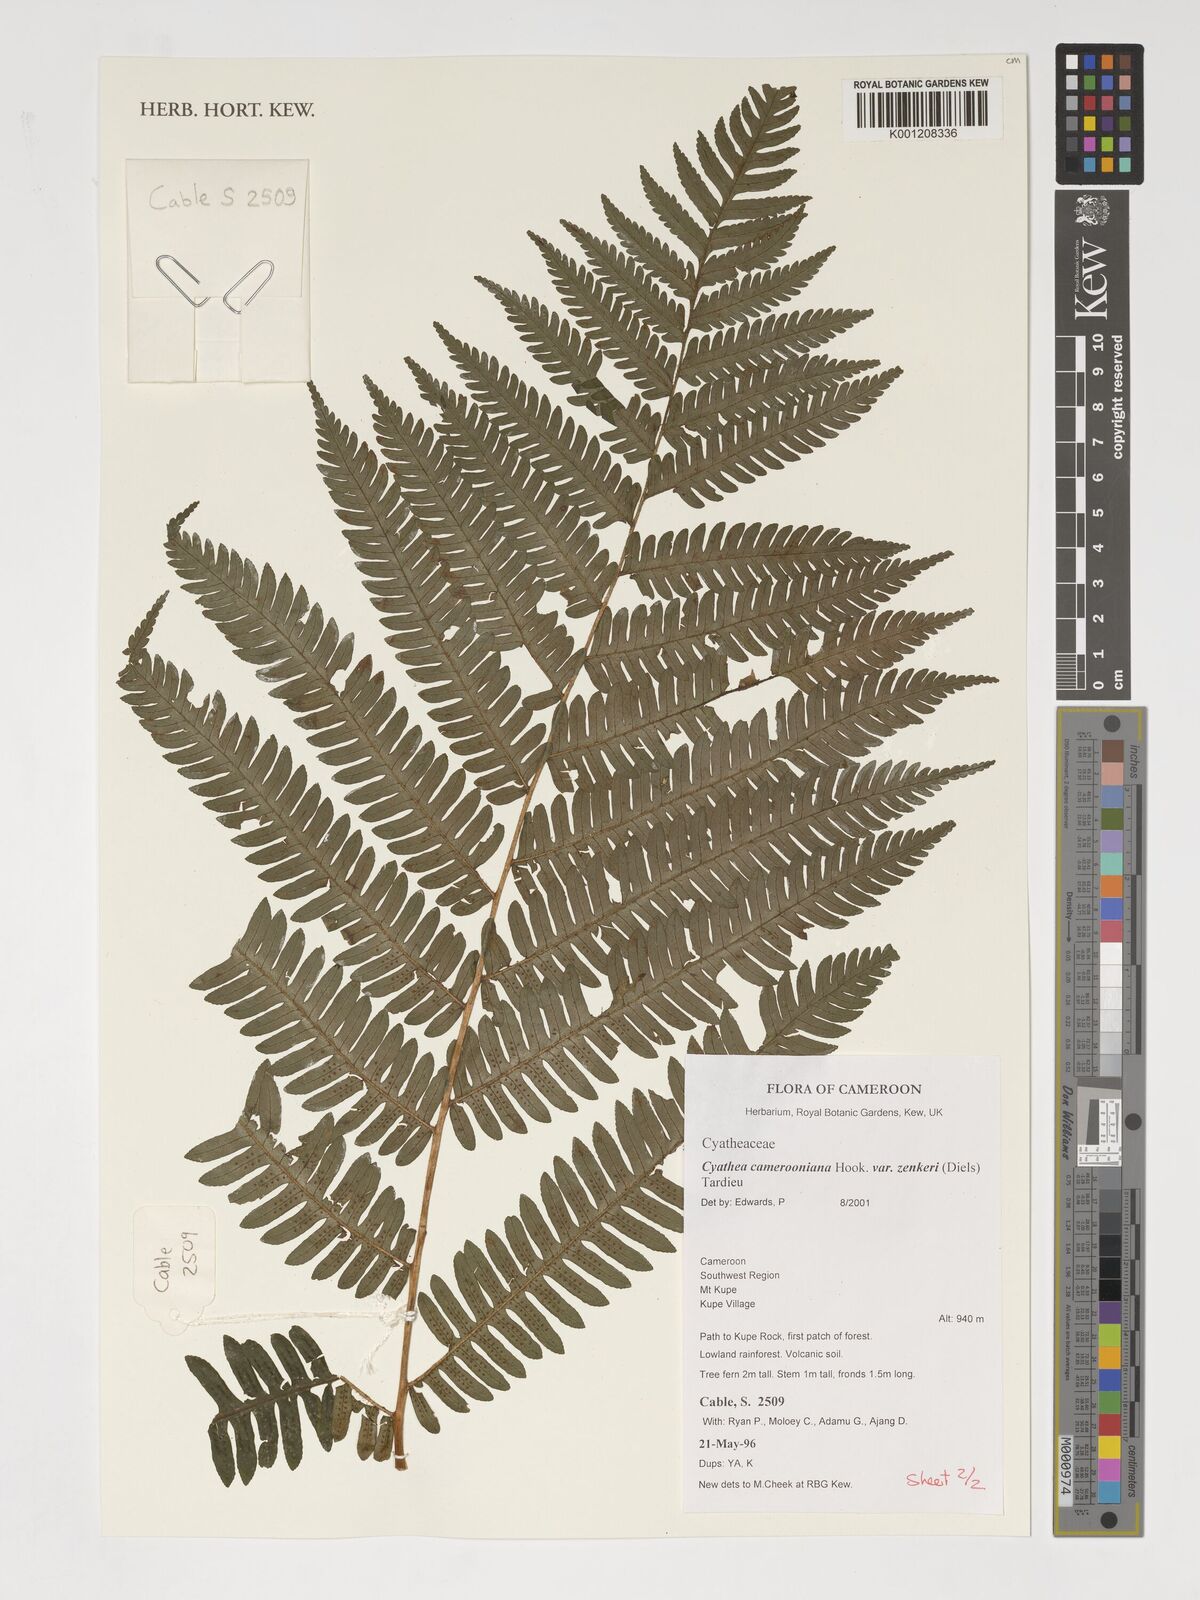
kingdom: Plantae
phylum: Tracheophyta
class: Polypodiopsida
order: Cyatheales
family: Cyatheaceae
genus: Alsophila
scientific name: Alsophila camerooniana
